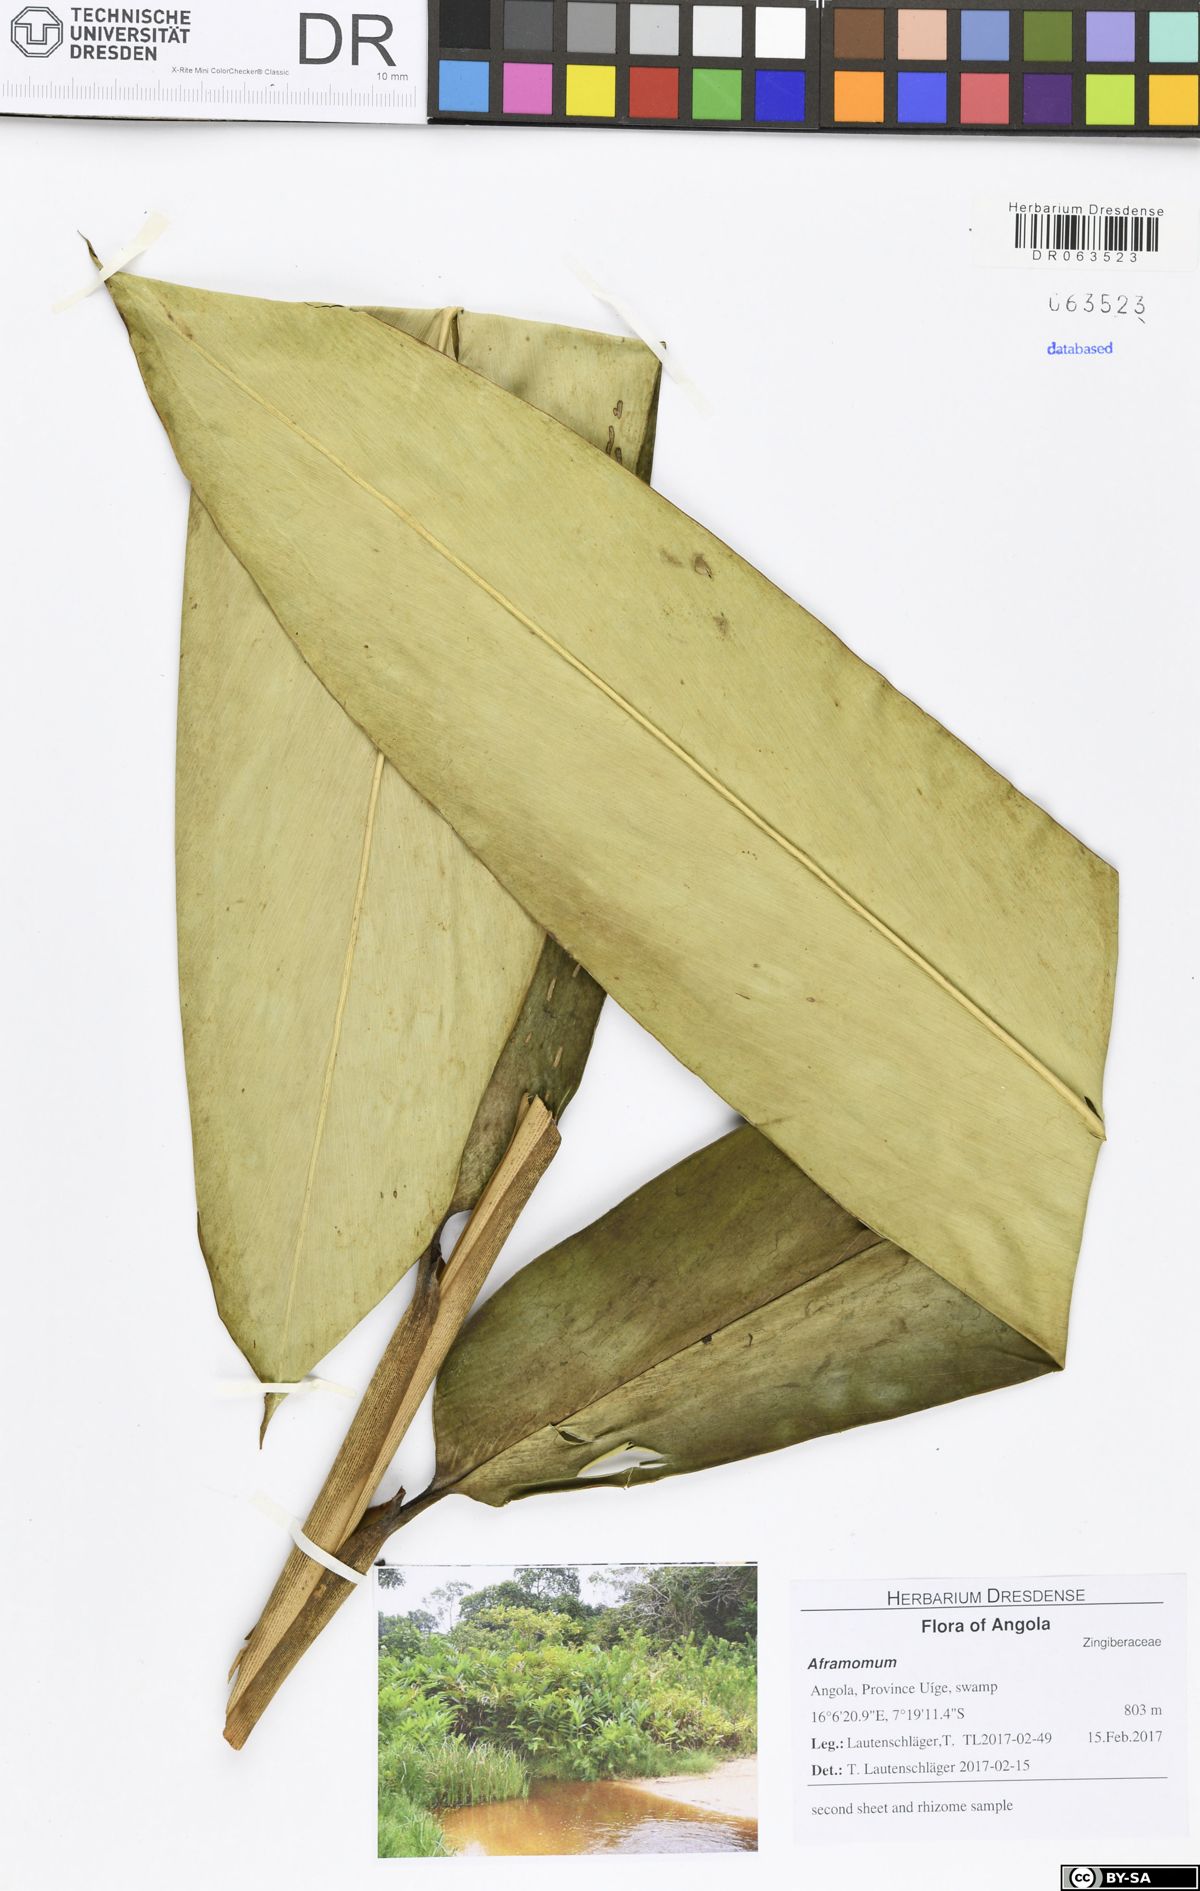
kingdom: Plantae
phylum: Tracheophyta
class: Liliopsida
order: Zingiberales
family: Zingiberaceae
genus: Aframomum
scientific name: Aframomum
